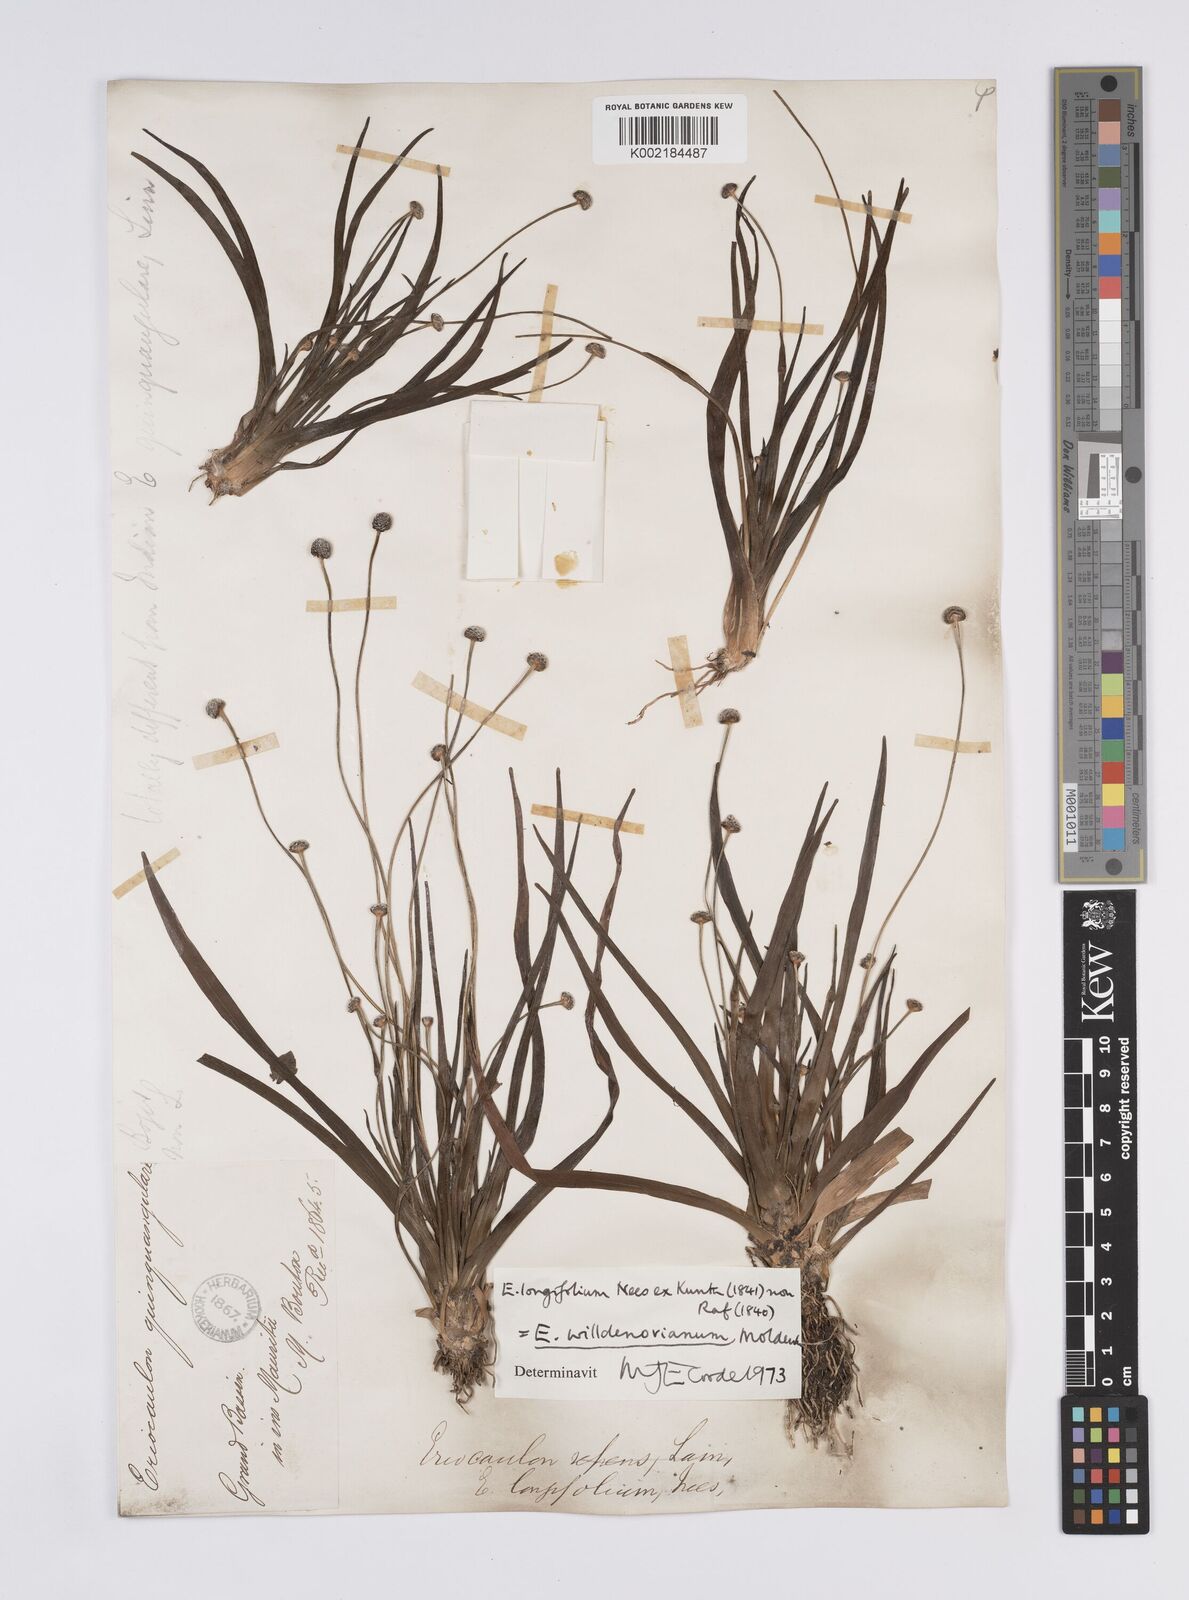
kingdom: Plantae
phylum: Tracheophyta
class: Liliopsida
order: Poales
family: Eriocaulaceae
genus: Eriocaulon
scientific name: Eriocaulon willdenovianum
